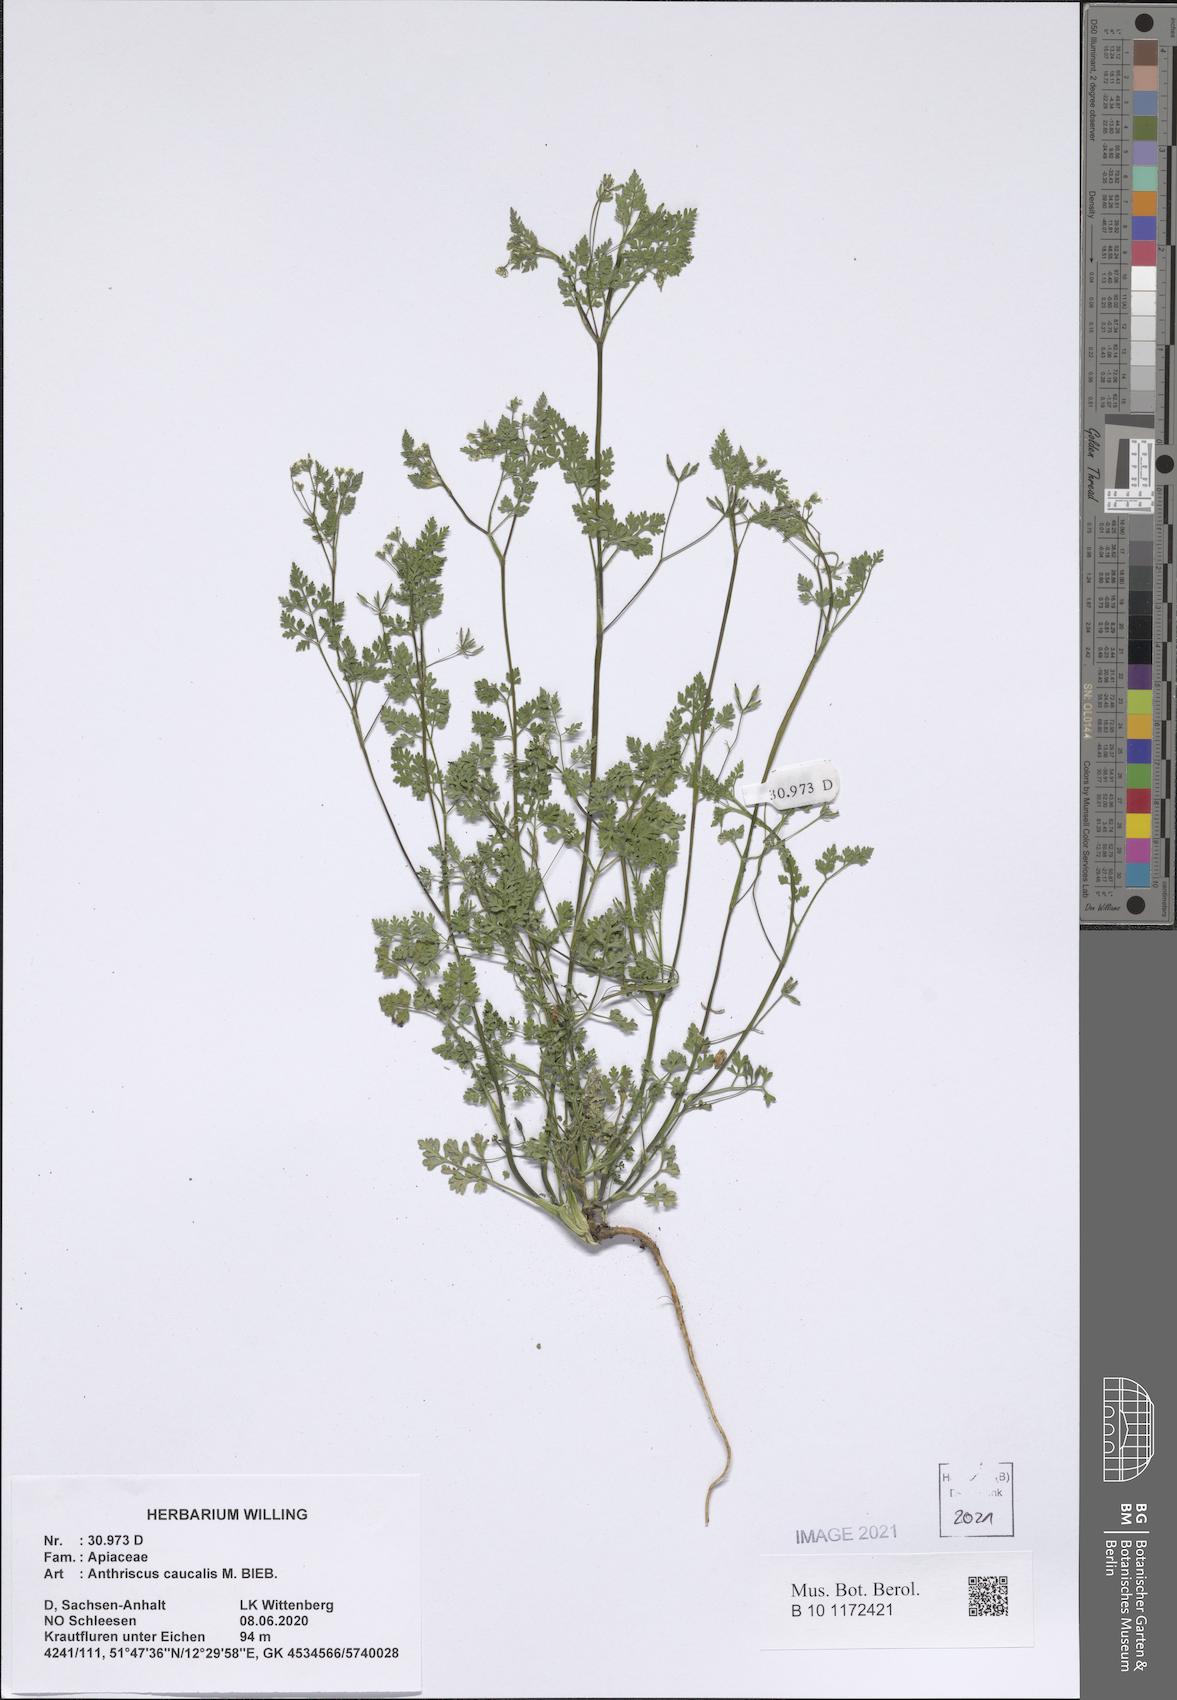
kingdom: Plantae
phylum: Tracheophyta
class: Magnoliopsida
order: Apiales
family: Apiaceae
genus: Anthriscus
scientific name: Anthriscus caucalis
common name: Bur chervil
